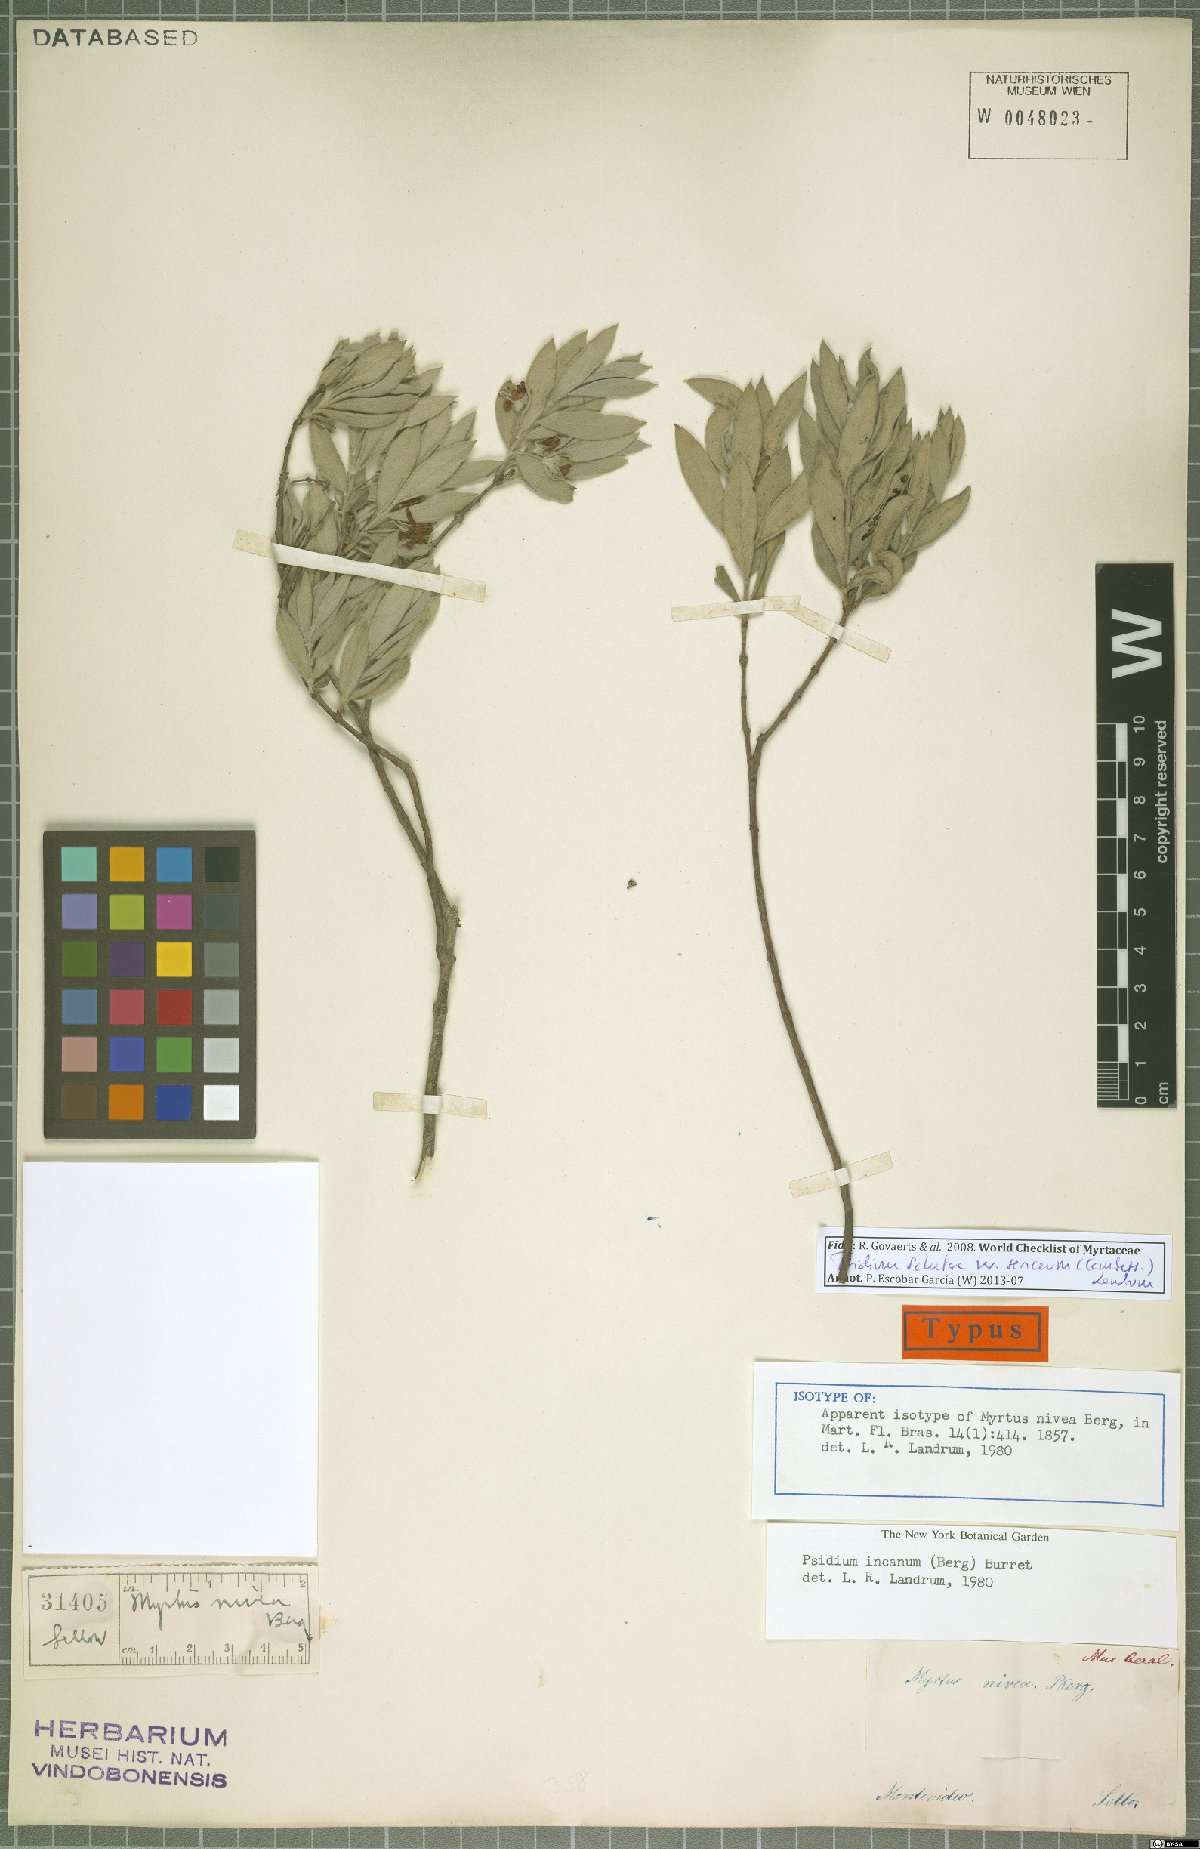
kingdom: Plantae
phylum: Tracheophyta
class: Magnoliopsida
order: Myrtales
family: Myrtaceae
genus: Psidium
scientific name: Psidium salutare
